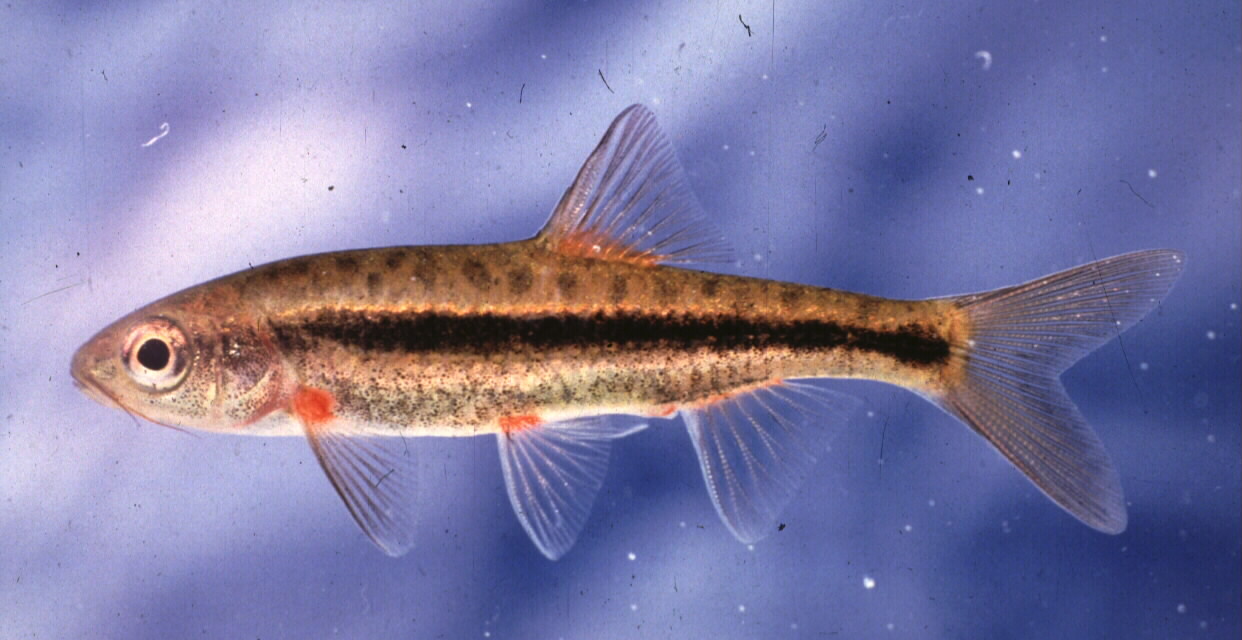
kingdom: Animalia
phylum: Chordata
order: Cypriniformes
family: Cyprinidae
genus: Pseudobarbus
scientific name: Pseudobarbus calidus
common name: Clanwilliam redfin
